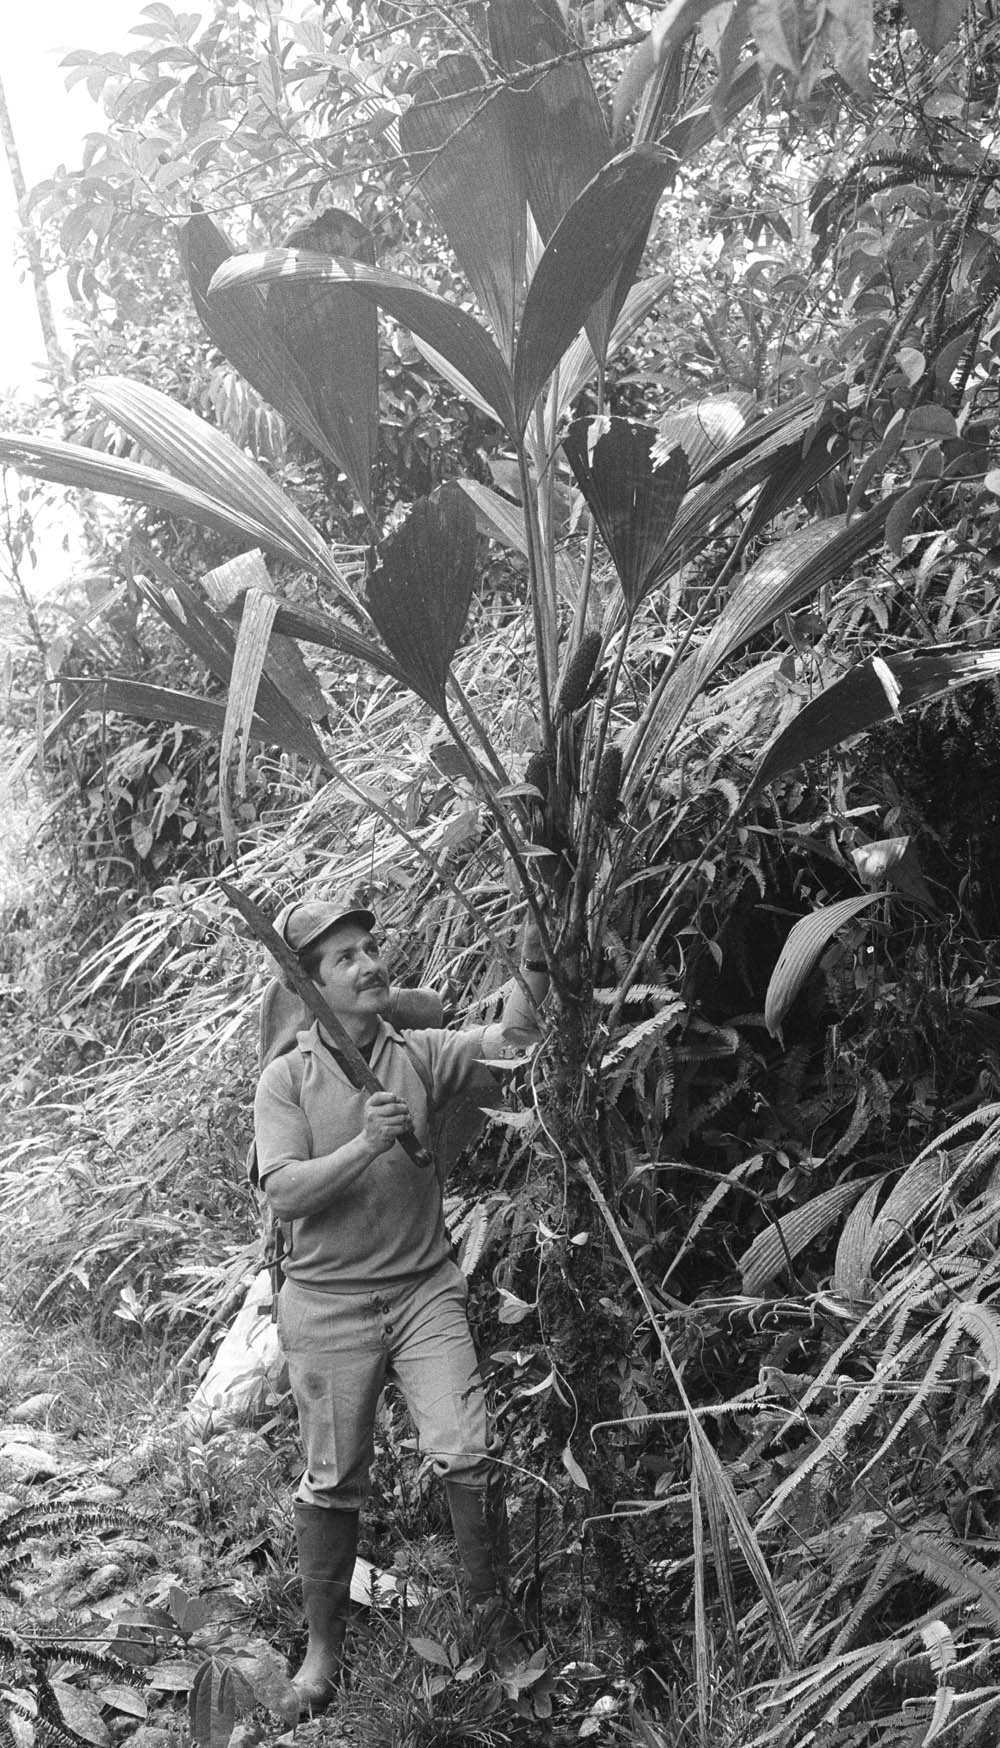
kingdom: Plantae
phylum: Tracheophyta
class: Liliopsida
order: Pandanales
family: Cyclanthaceae
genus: Asplundia
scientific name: Asplundia
